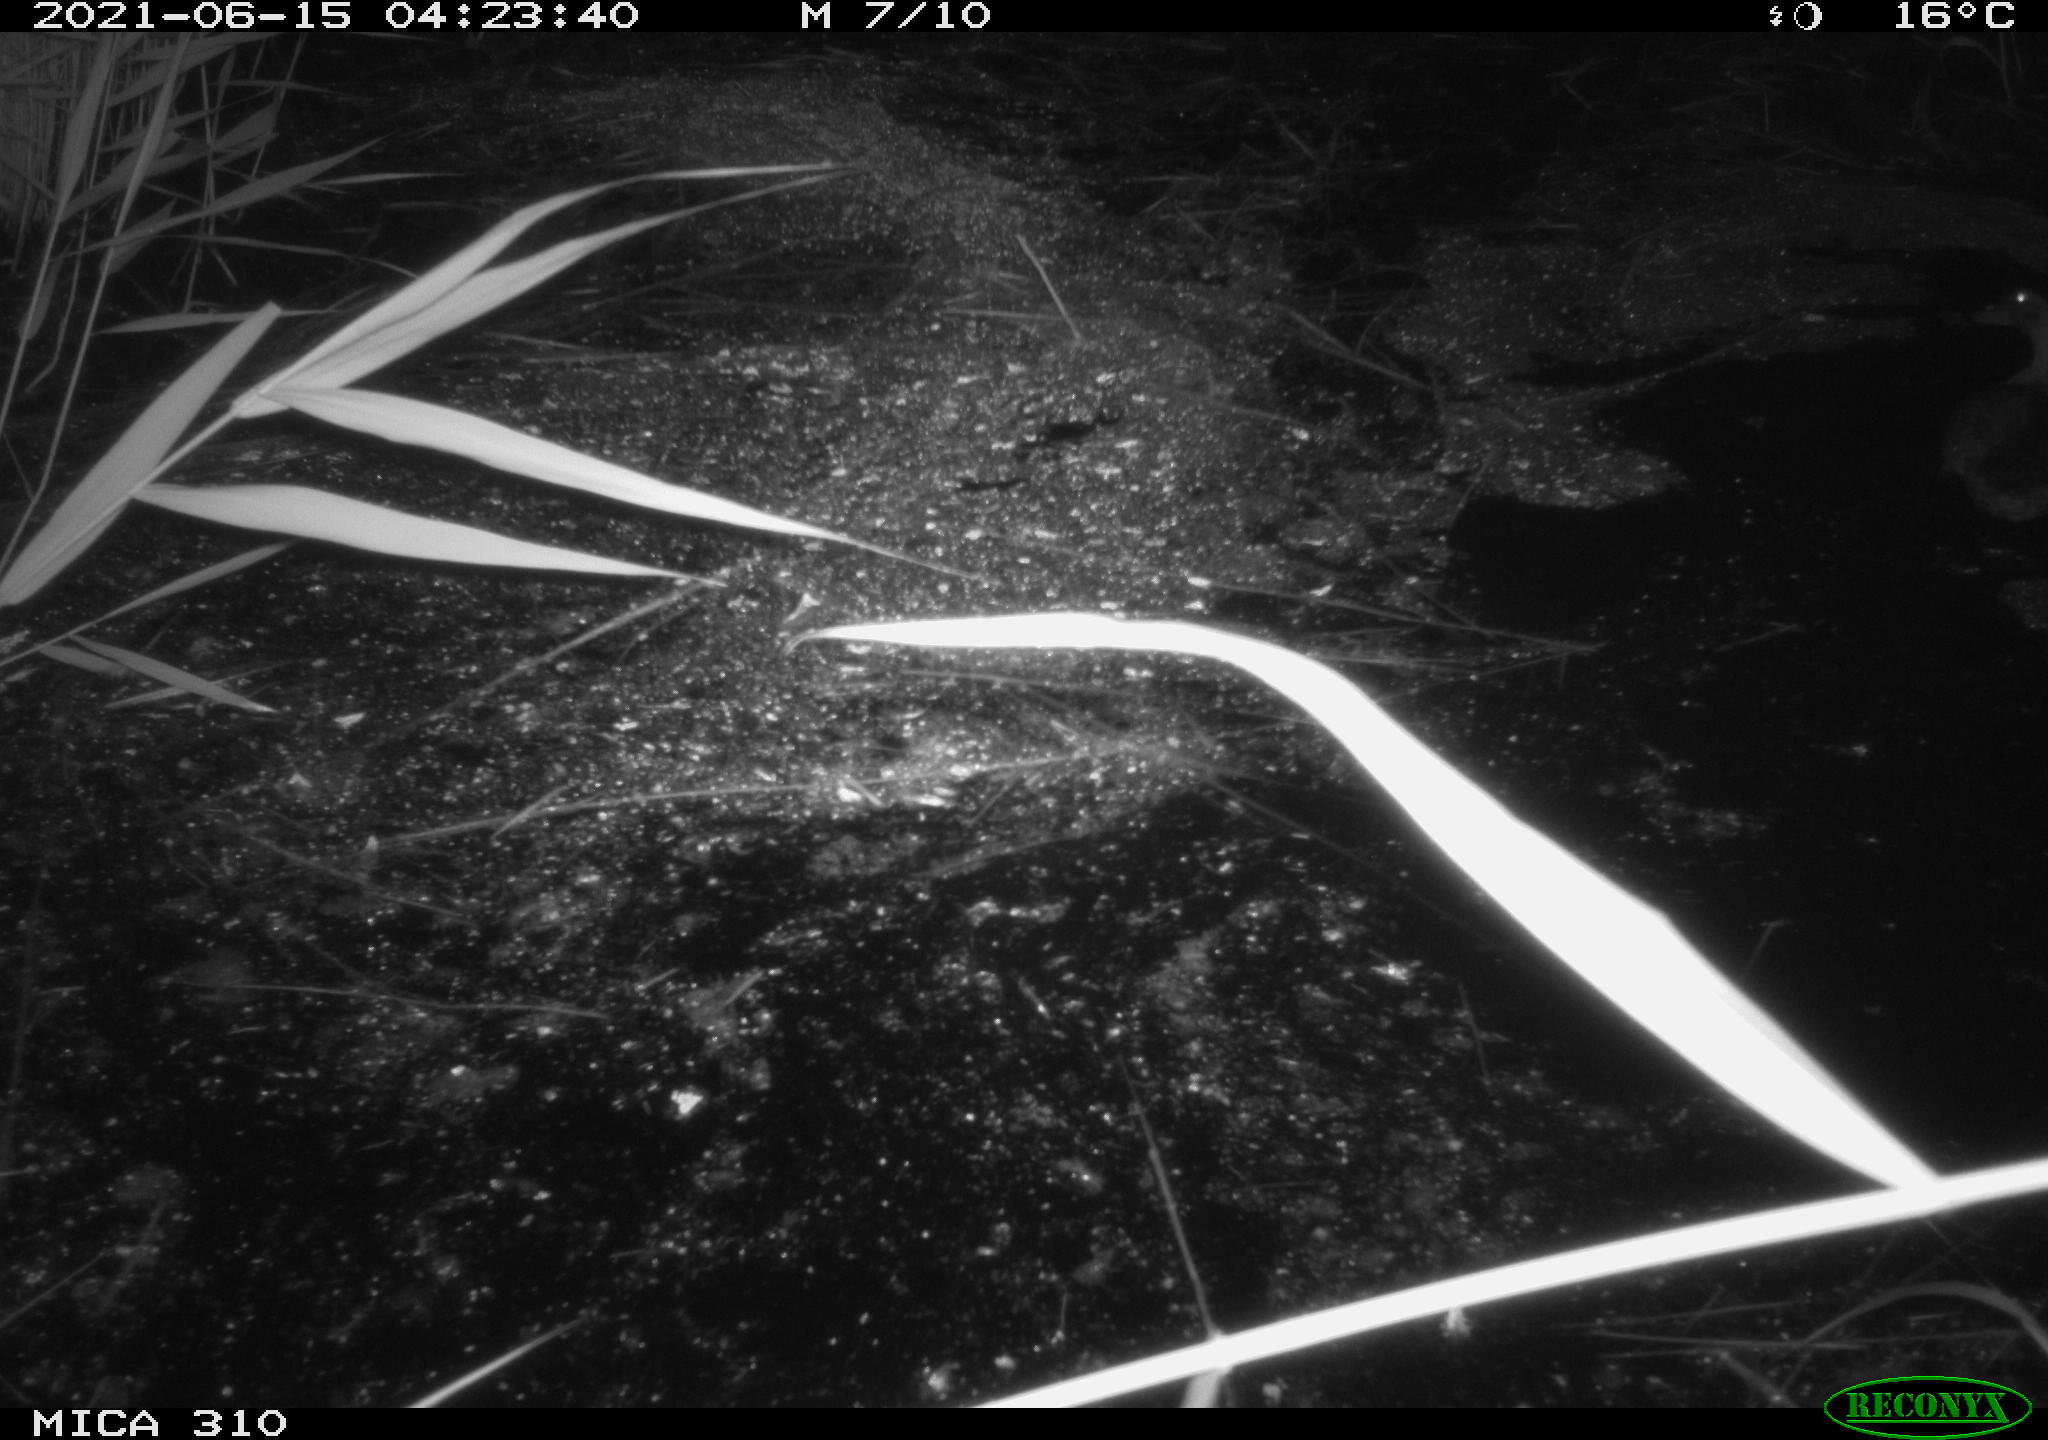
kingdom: Animalia
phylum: Chordata
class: Aves
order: Anseriformes
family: Anatidae
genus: Anas
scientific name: Anas platyrhynchos
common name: Mallard
